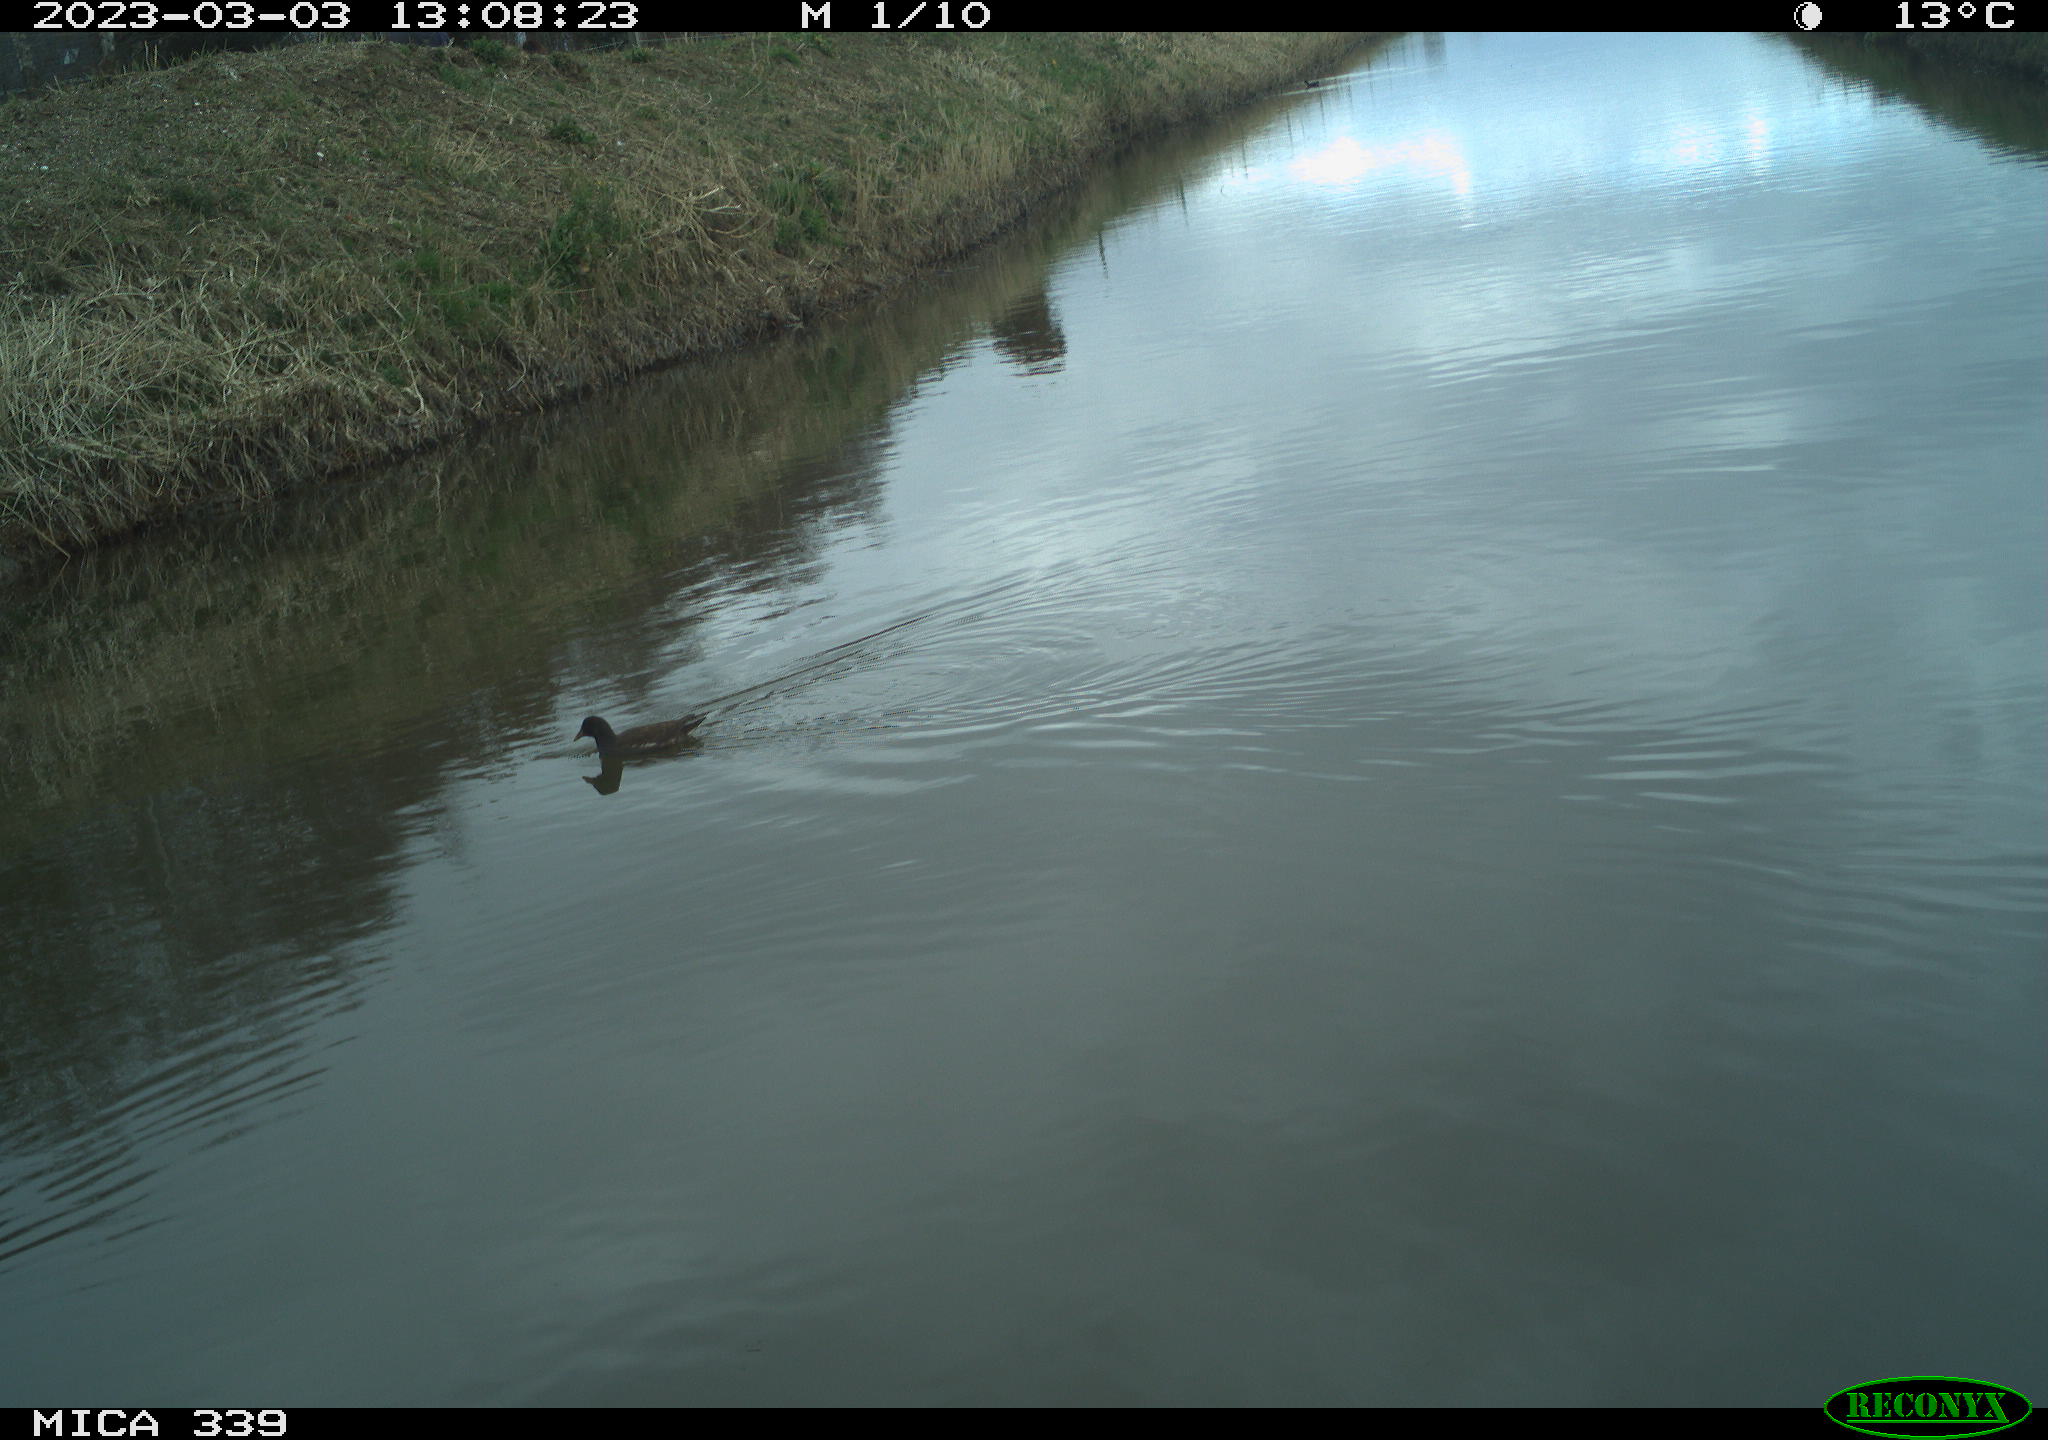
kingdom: Animalia
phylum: Chordata
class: Aves
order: Gruiformes
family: Rallidae
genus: Gallinula
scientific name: Gallinula chloropus
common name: Common moorhen
